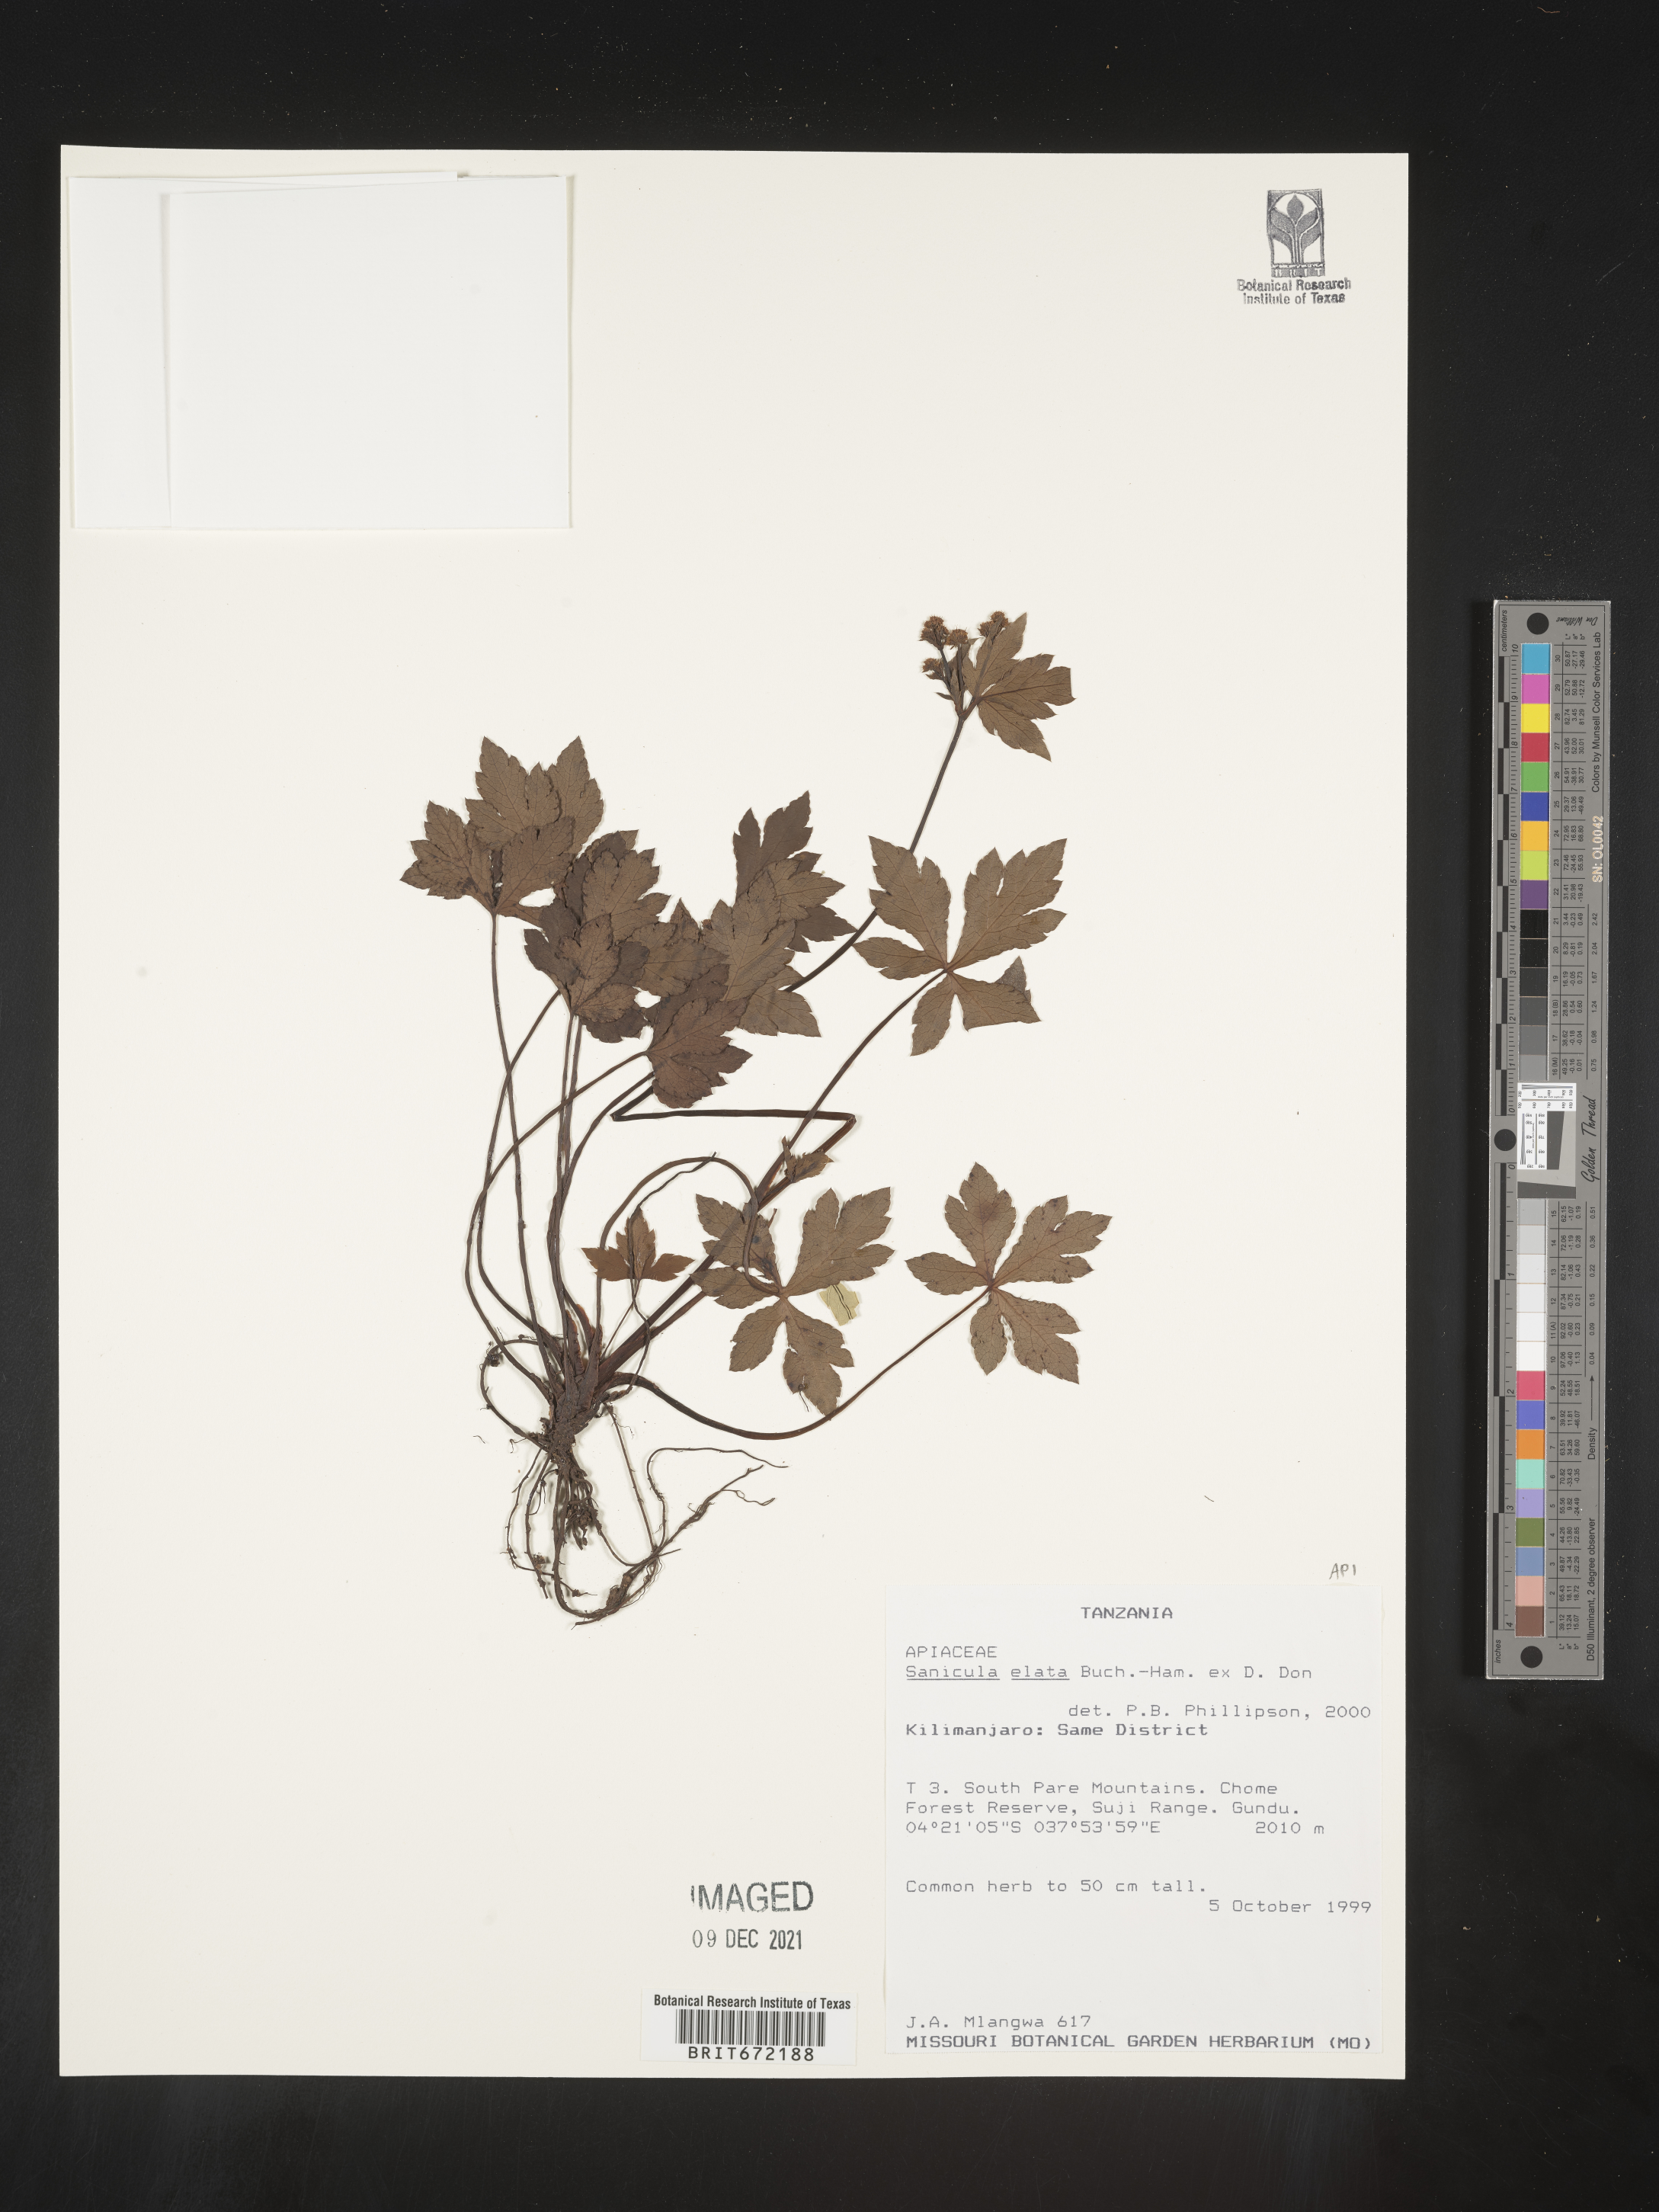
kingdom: Plantae
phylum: Tracheophyta
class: Magnoliopsida
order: Apiales
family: Apiaceae
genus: Sanicula
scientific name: Sanicula
